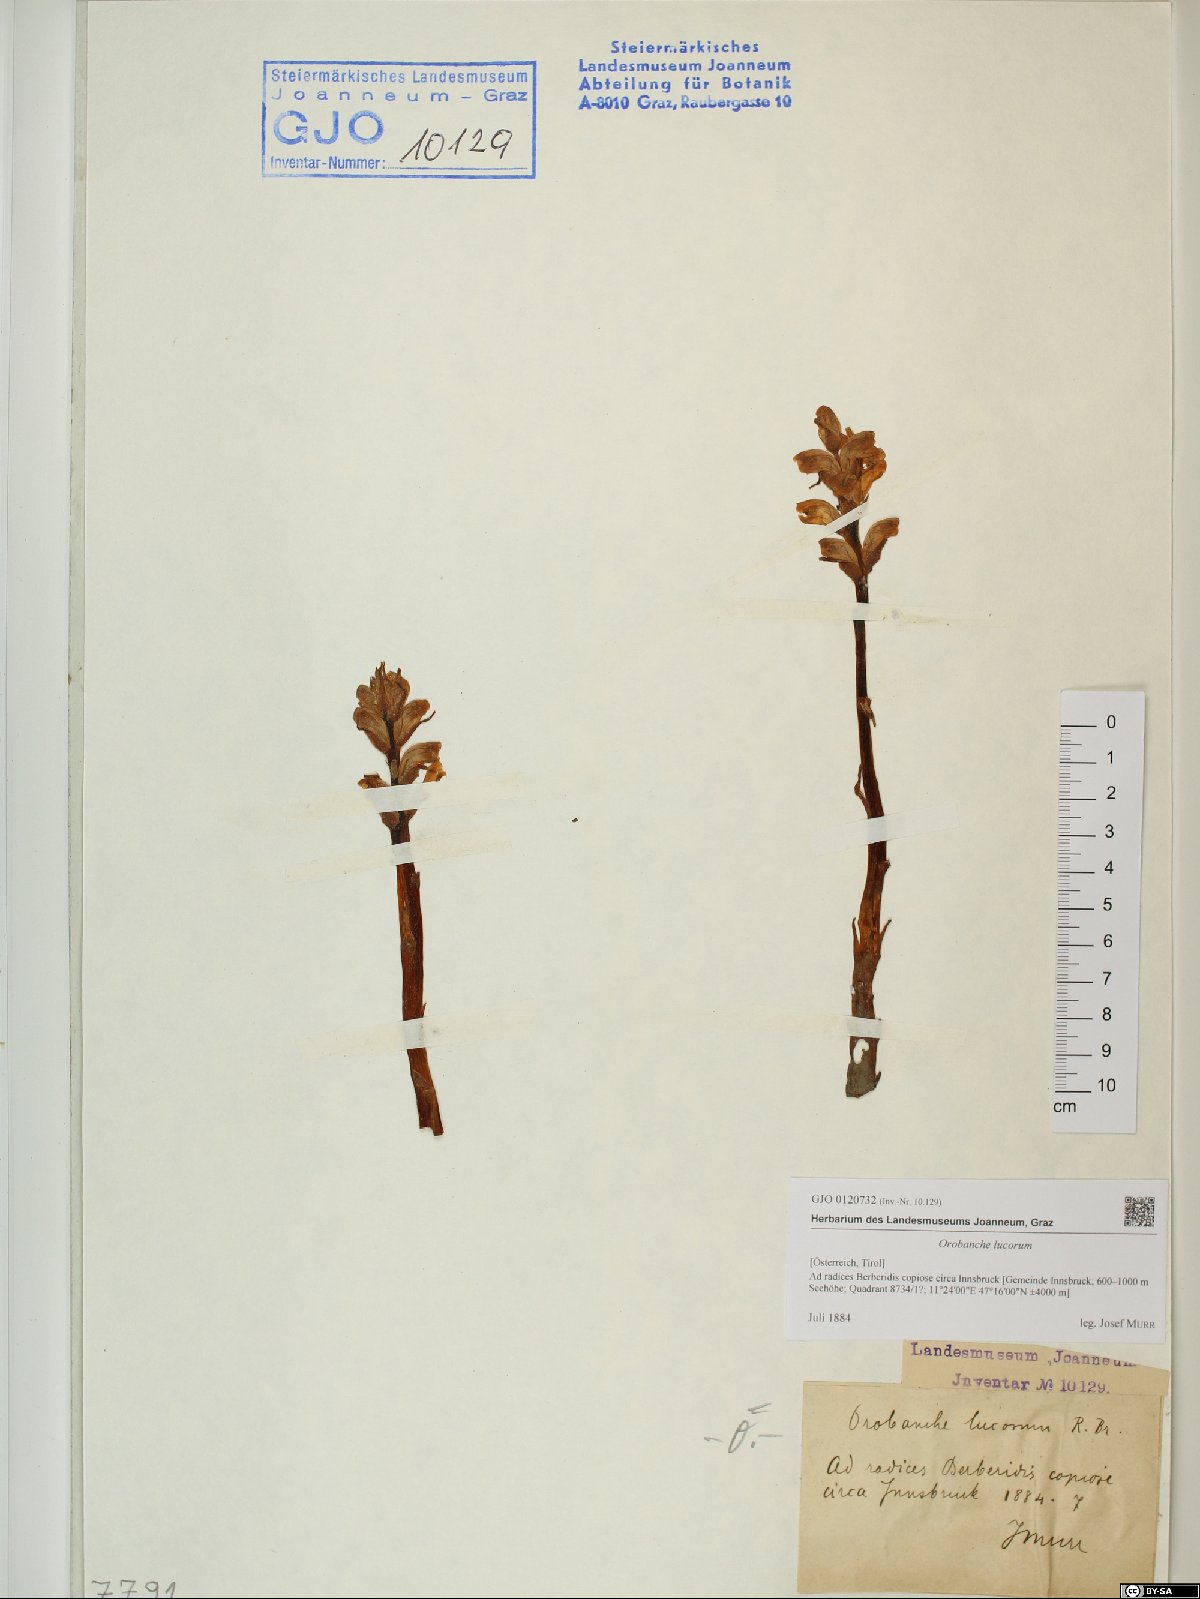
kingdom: Plantae
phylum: Tracheophyta
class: Magnoliopsida
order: Lamiales
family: Orobanchaceae
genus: Orobanche
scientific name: Orobanche lucorum
